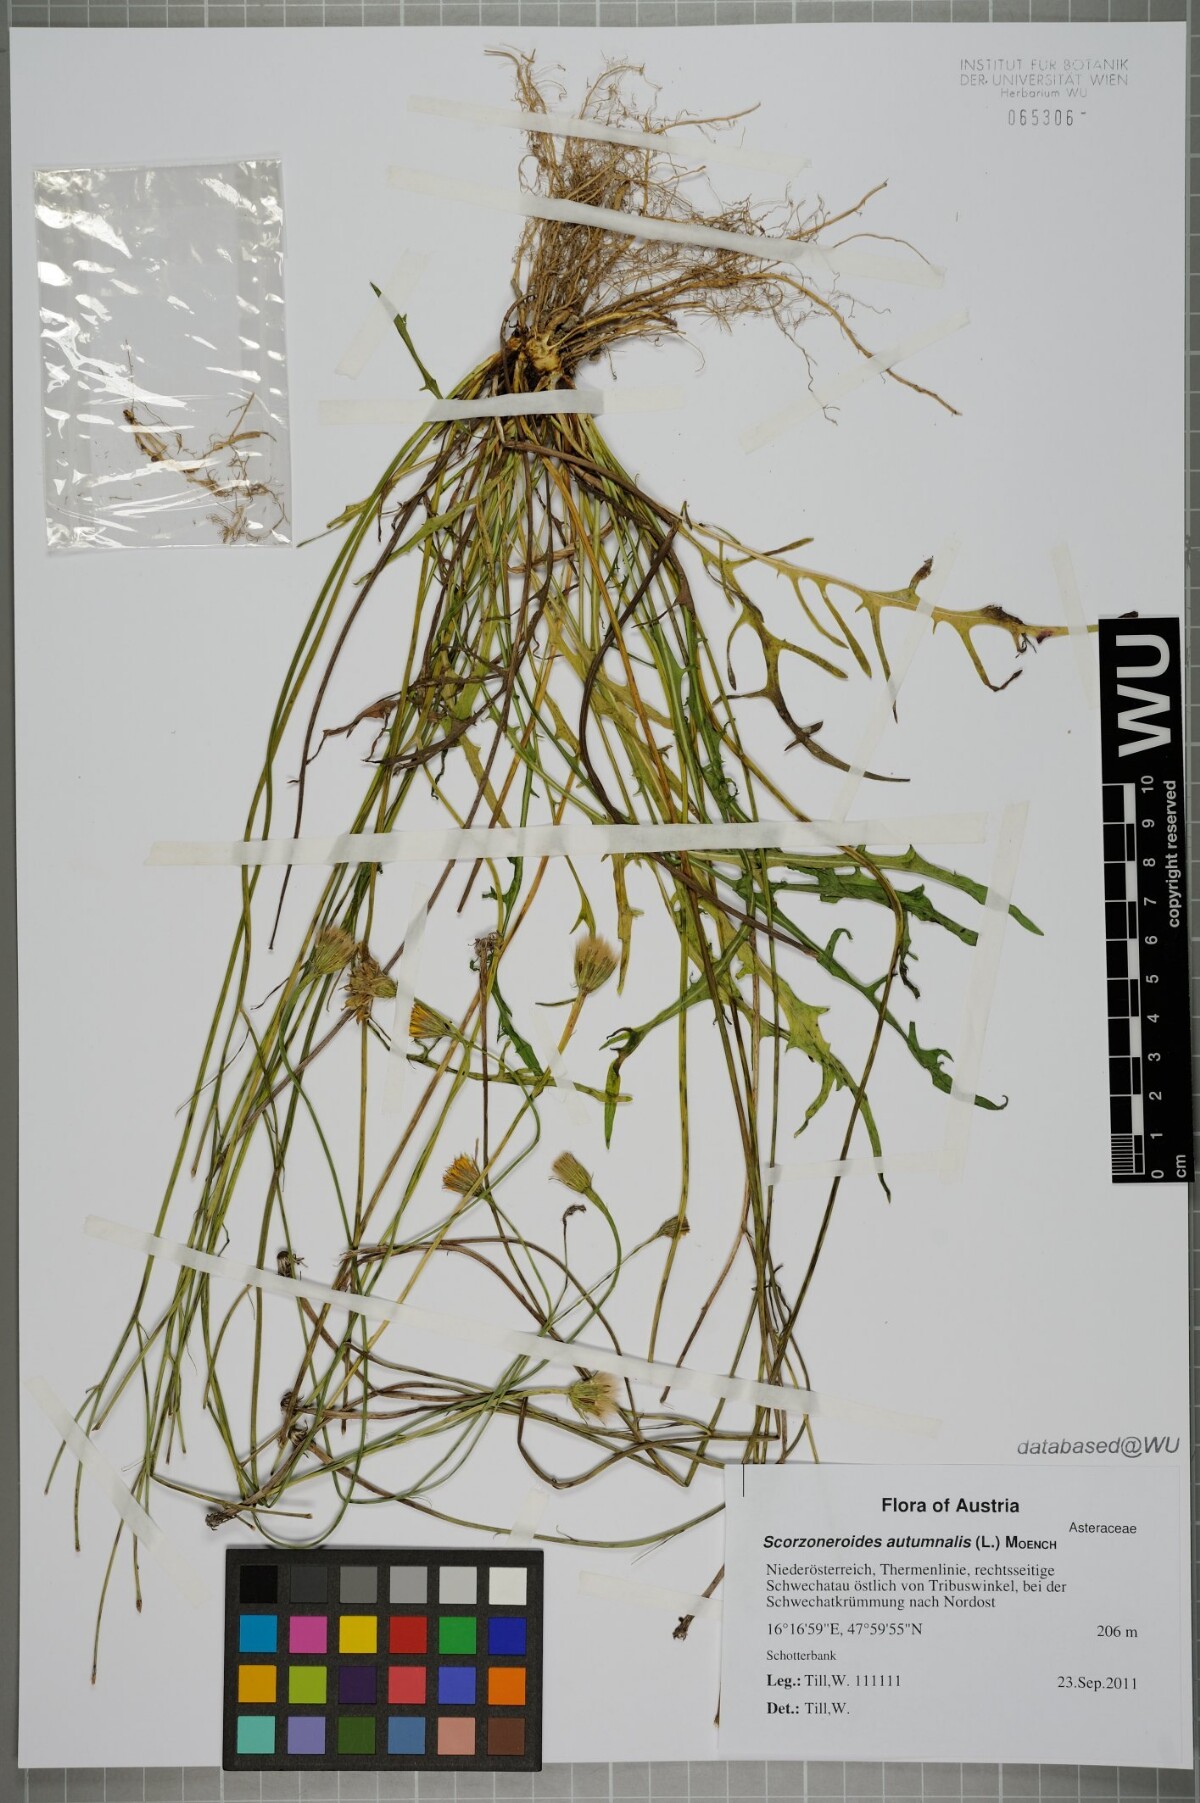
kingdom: Plantae
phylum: Tracheophyta
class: Magnoliopsida
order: Asterales
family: Asteraceae
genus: Scorzoneroides
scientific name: Scorzoneroides autumnalis
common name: Autumn hawkbit
